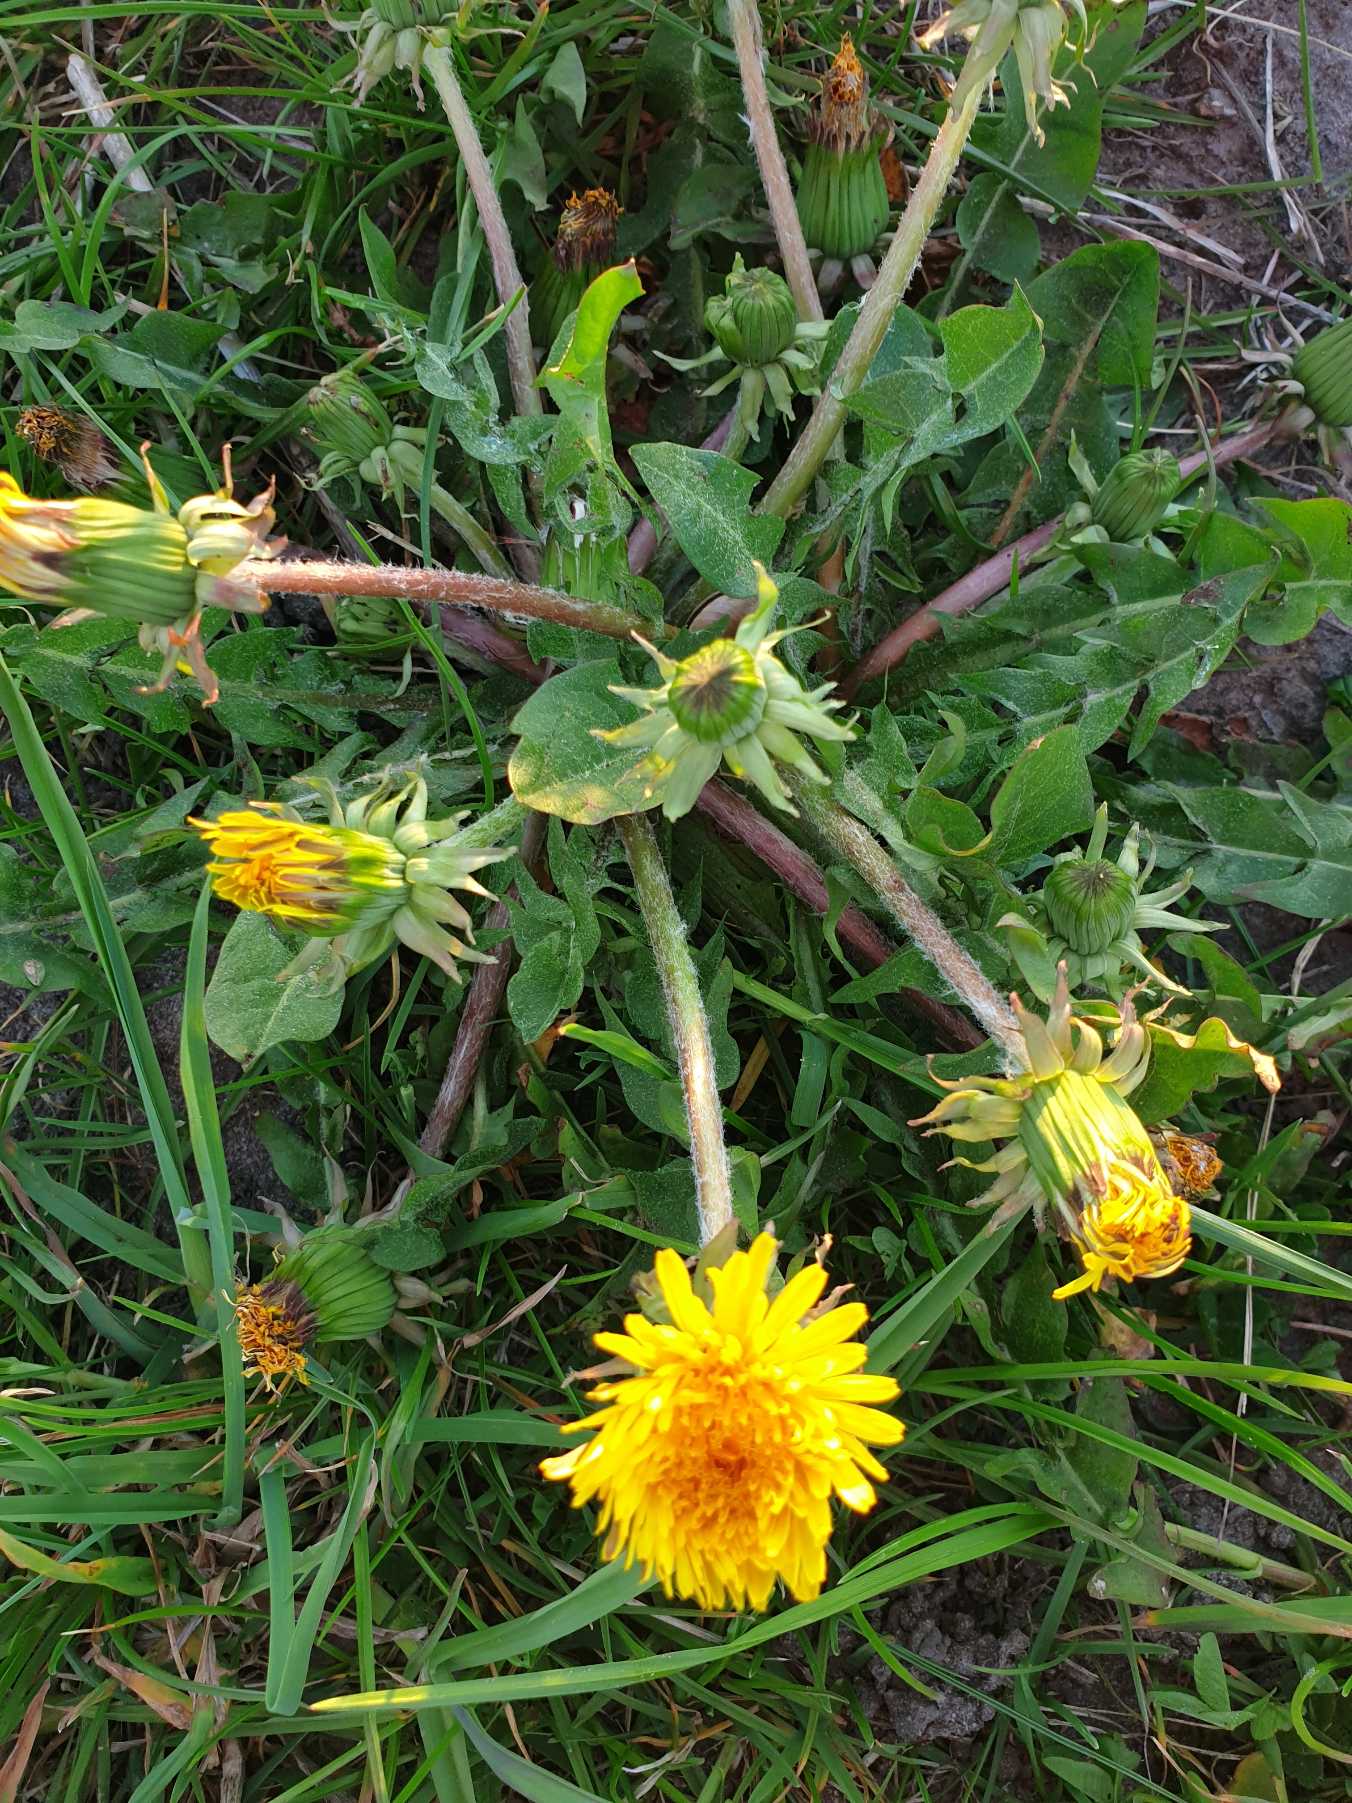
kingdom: Plantae
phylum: Tracheophyta
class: Magnoliopsida
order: Asterales
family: Asteraceae
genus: Taraxacum
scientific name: Taraxacum
